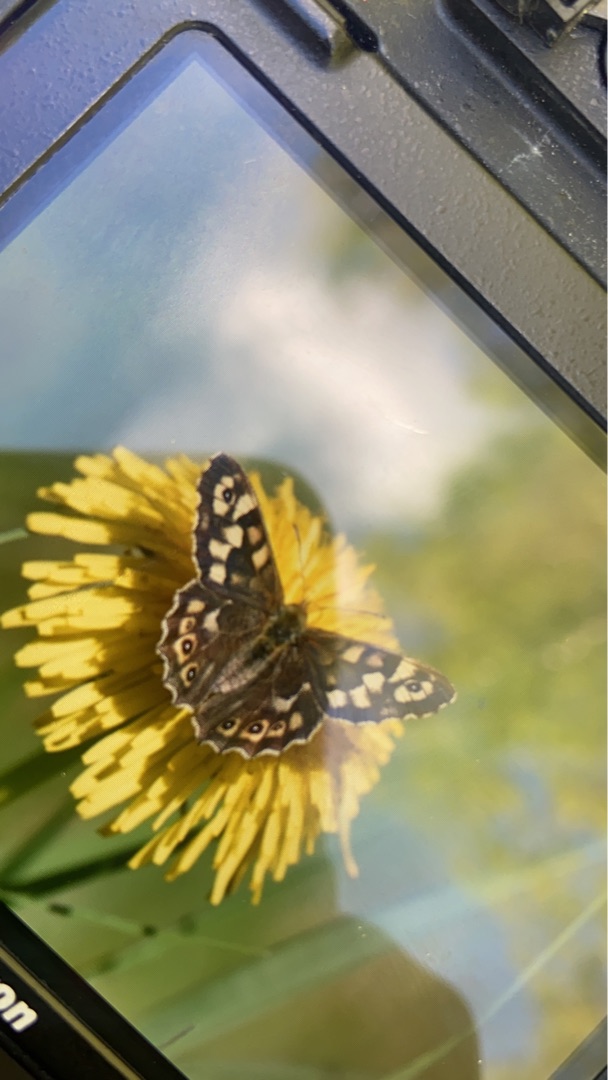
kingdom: Animalia
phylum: Arthropoda
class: Insecta
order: Lepidoptera
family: Nymphalidae
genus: Pararge
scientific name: Pararge aegeria
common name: Skovrandøje
